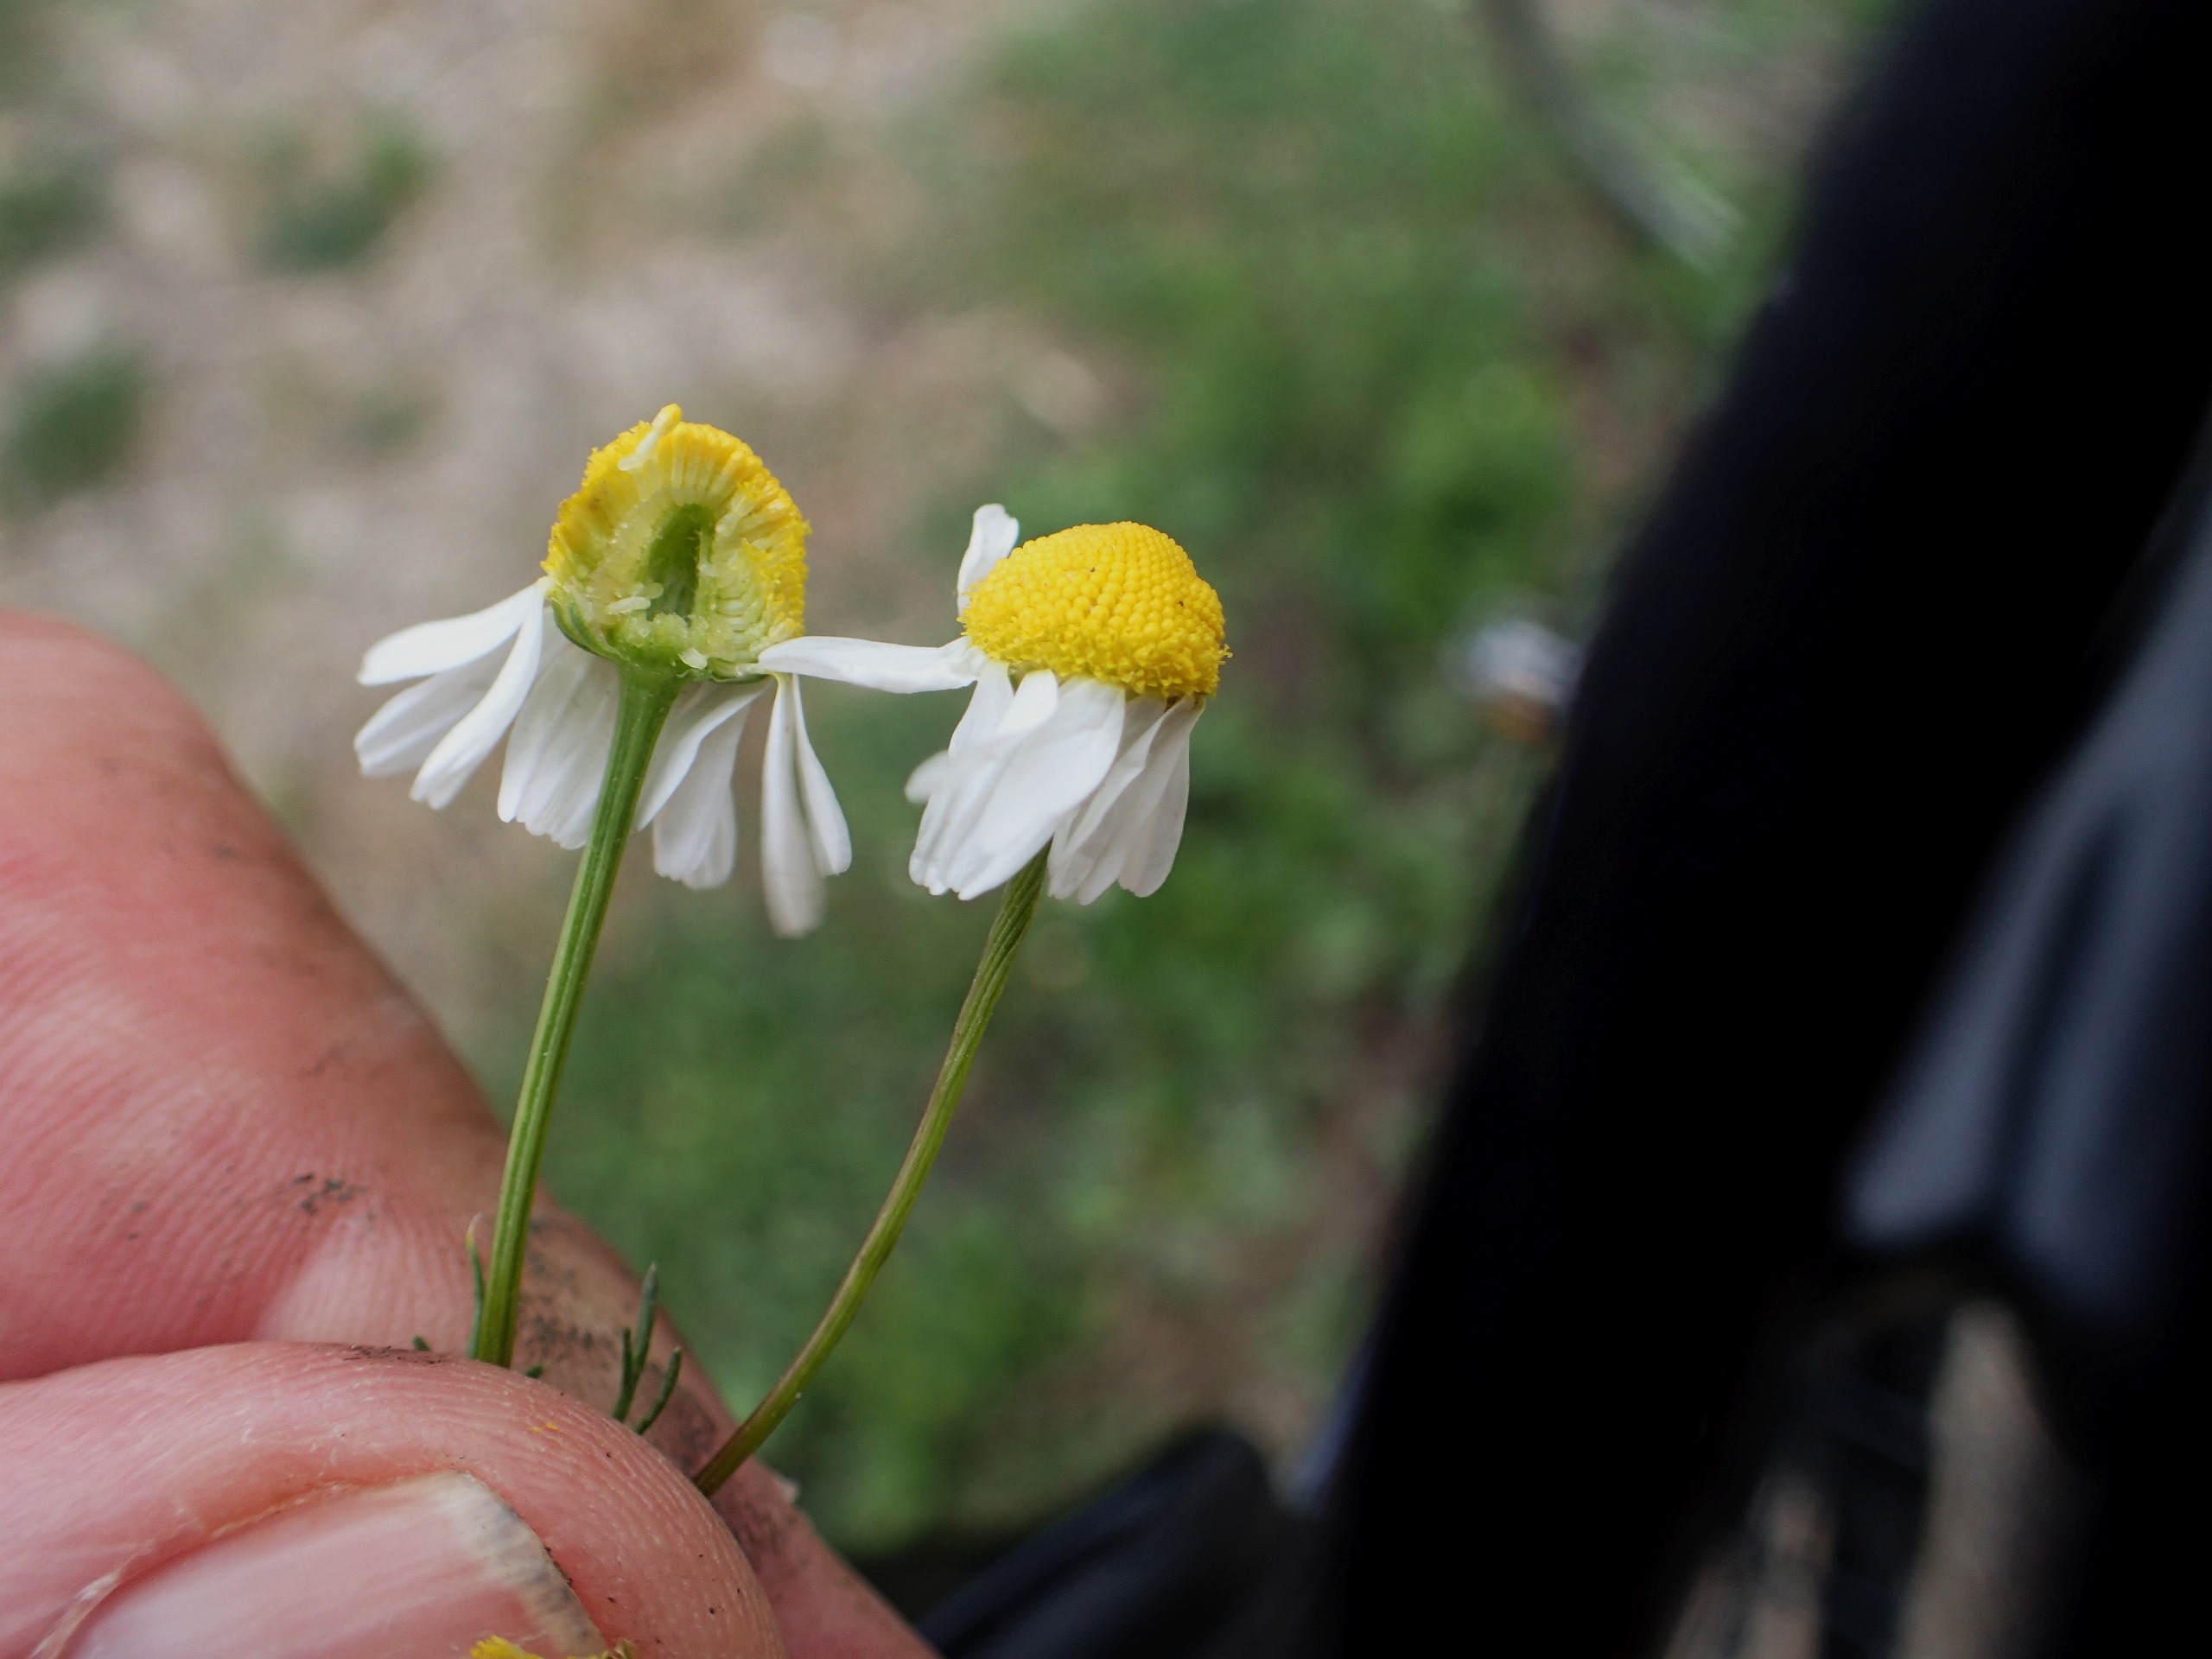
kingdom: Plantae
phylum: Tracheophyta
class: Magnoliopsida
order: Asterales
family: Asteraceae
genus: Matricaria
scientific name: Matricaria chamomilla
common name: Vellugtende kamille
